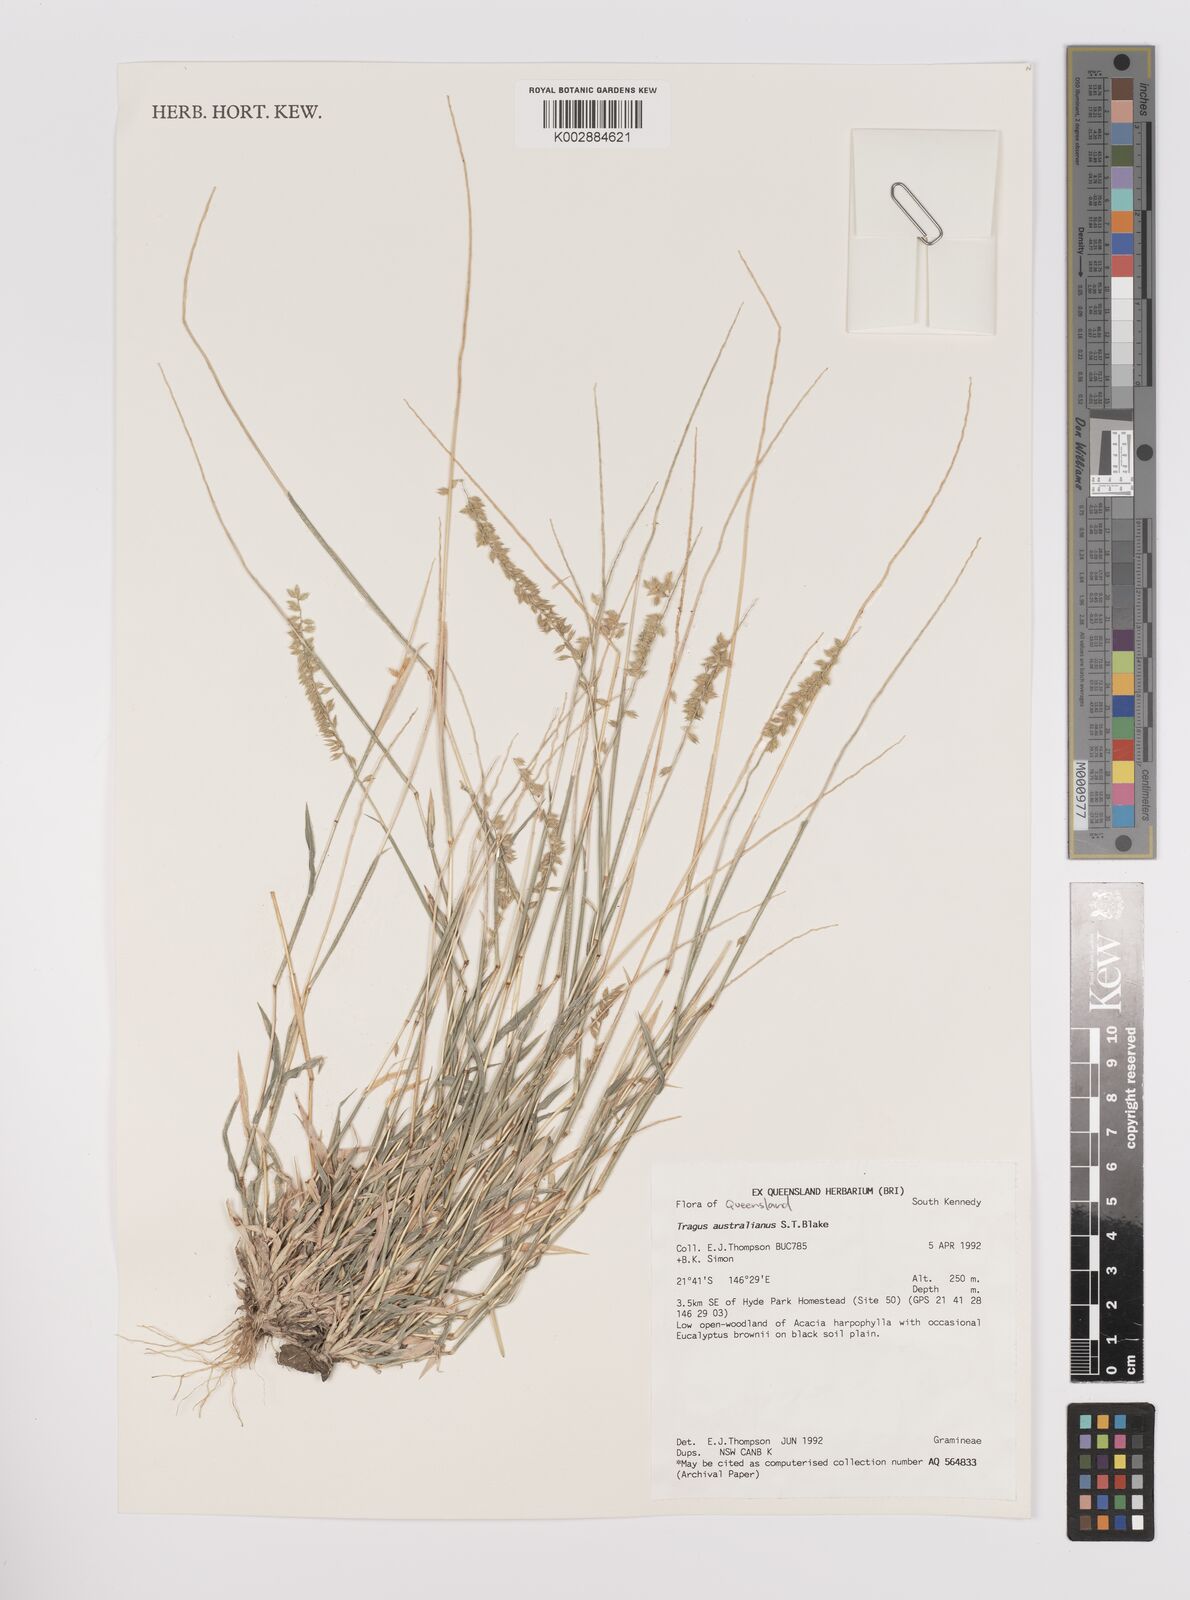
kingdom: Plantae
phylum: Tracheophyta
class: Liliopsida
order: Poales
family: Poaceae
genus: Tragus
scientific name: Tragus australianus
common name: Australian bur-grass
